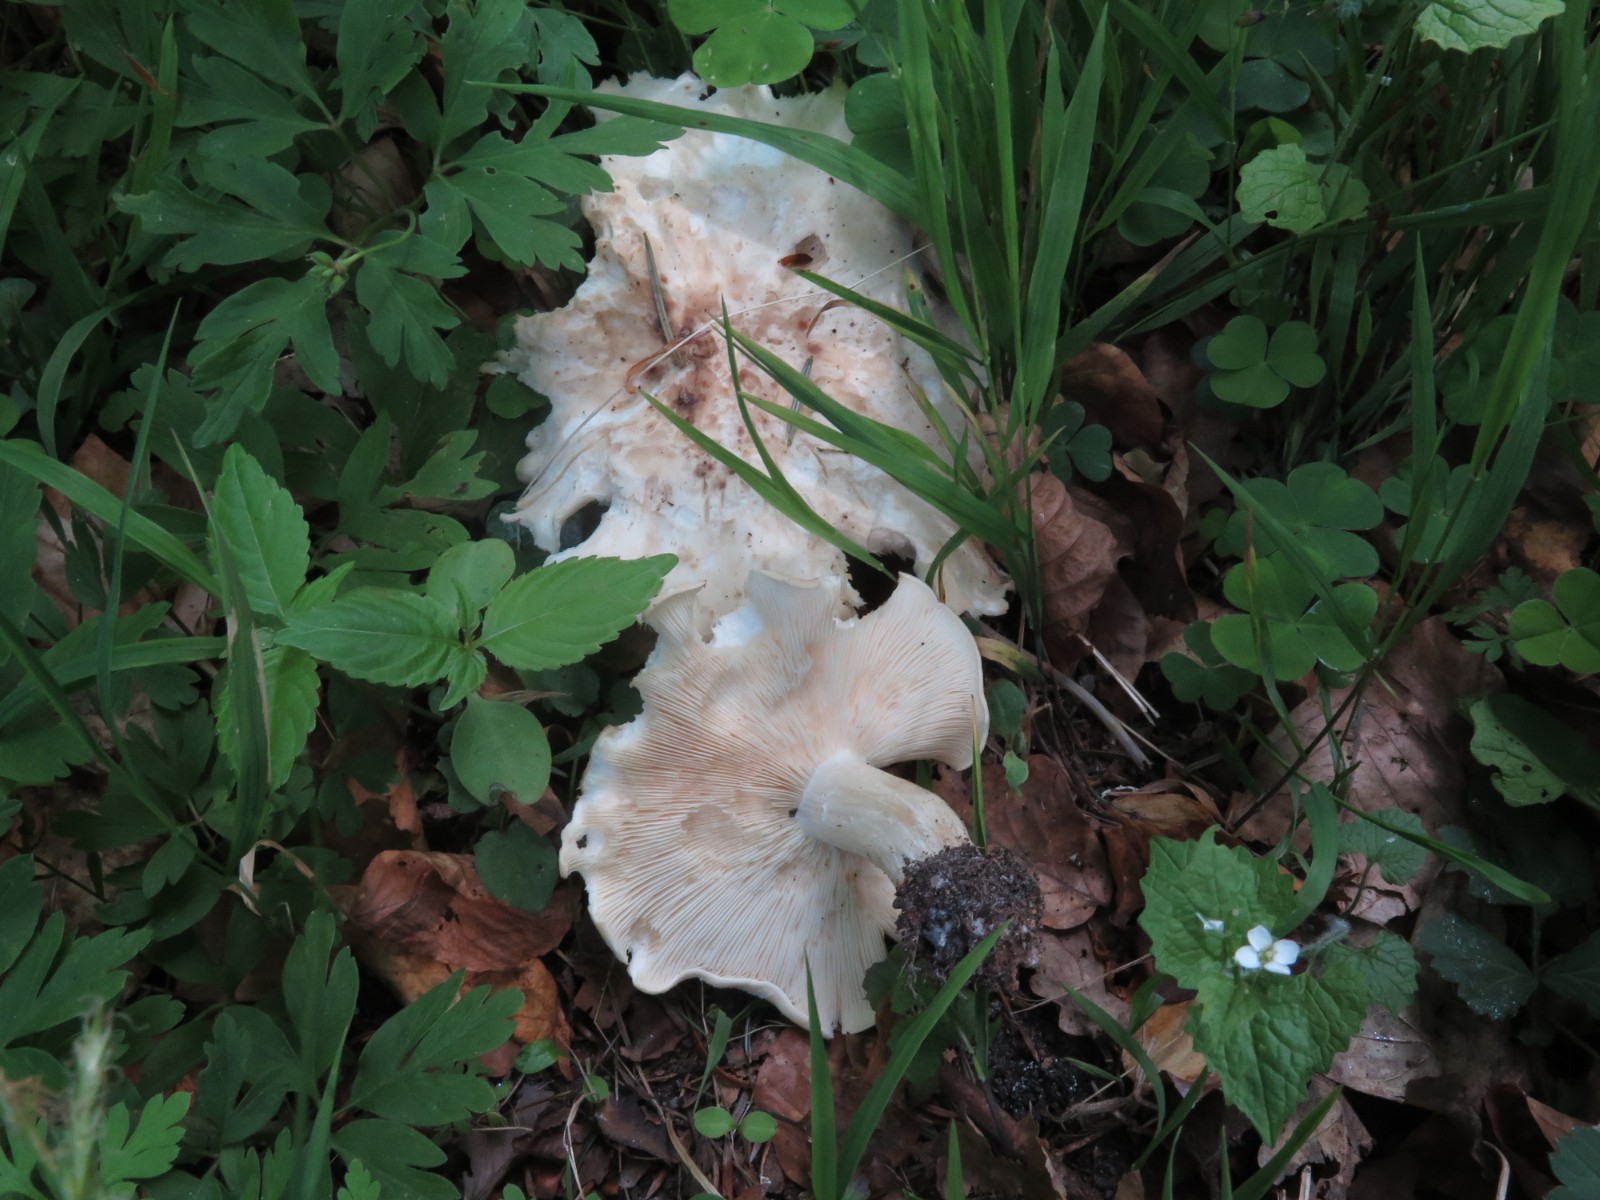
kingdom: Fungi
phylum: Basidiomycota
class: Agaricomycetes
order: Agaricales
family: Lyophyllaceae
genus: Calocybe
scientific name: Calocybe gambosa
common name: vårmusseron
